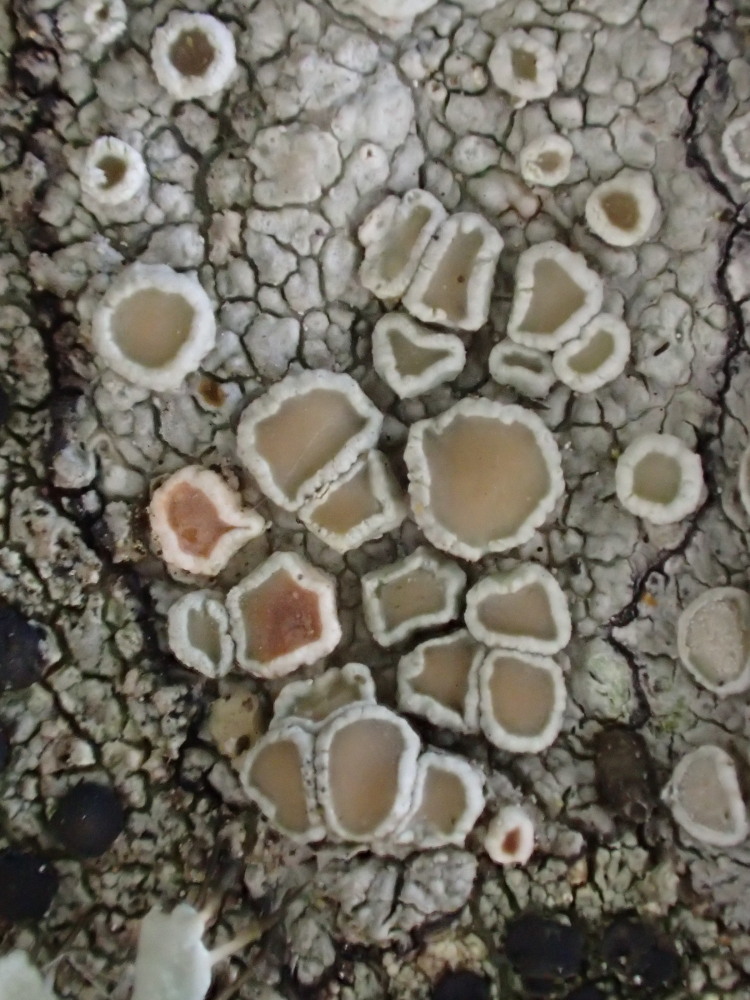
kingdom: Fungi
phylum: Ascomycota
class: Lecanoromycetes
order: Lecanorales
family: Lecanoraceae
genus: Lecanora
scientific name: Lecanora chlarotera
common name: brun kantskivelav
